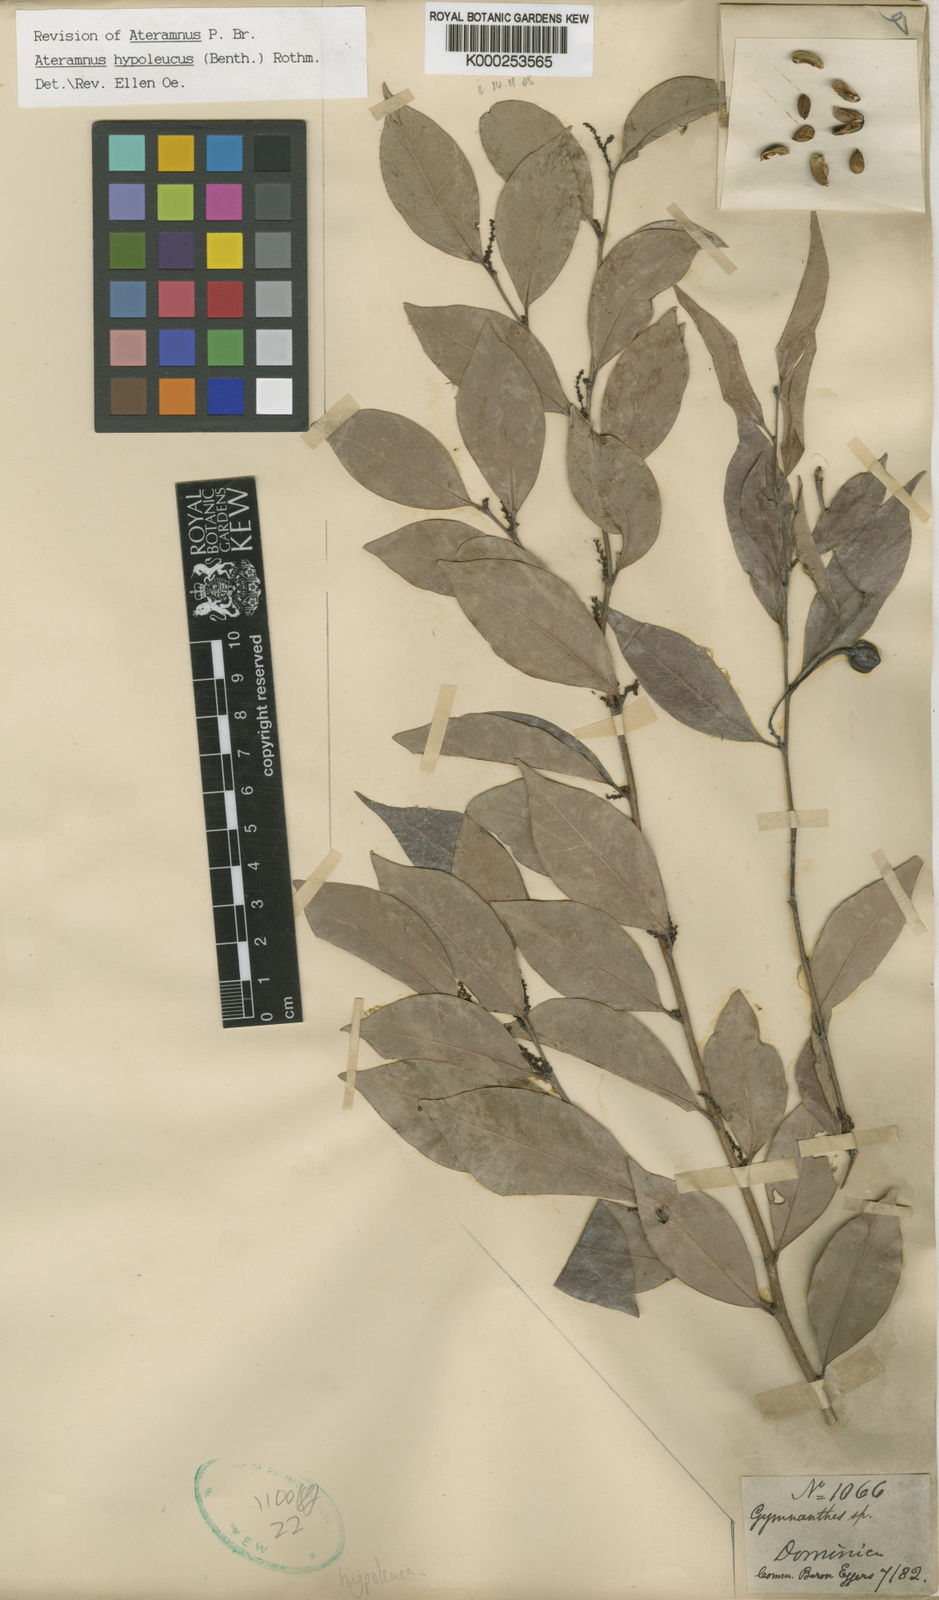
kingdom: Plantae
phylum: Tracheophyta
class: Magnoliopsida
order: Malpighiales
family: Euphorbiaceae
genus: Gymnanthes
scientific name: Gymnanthes hypoleuca
